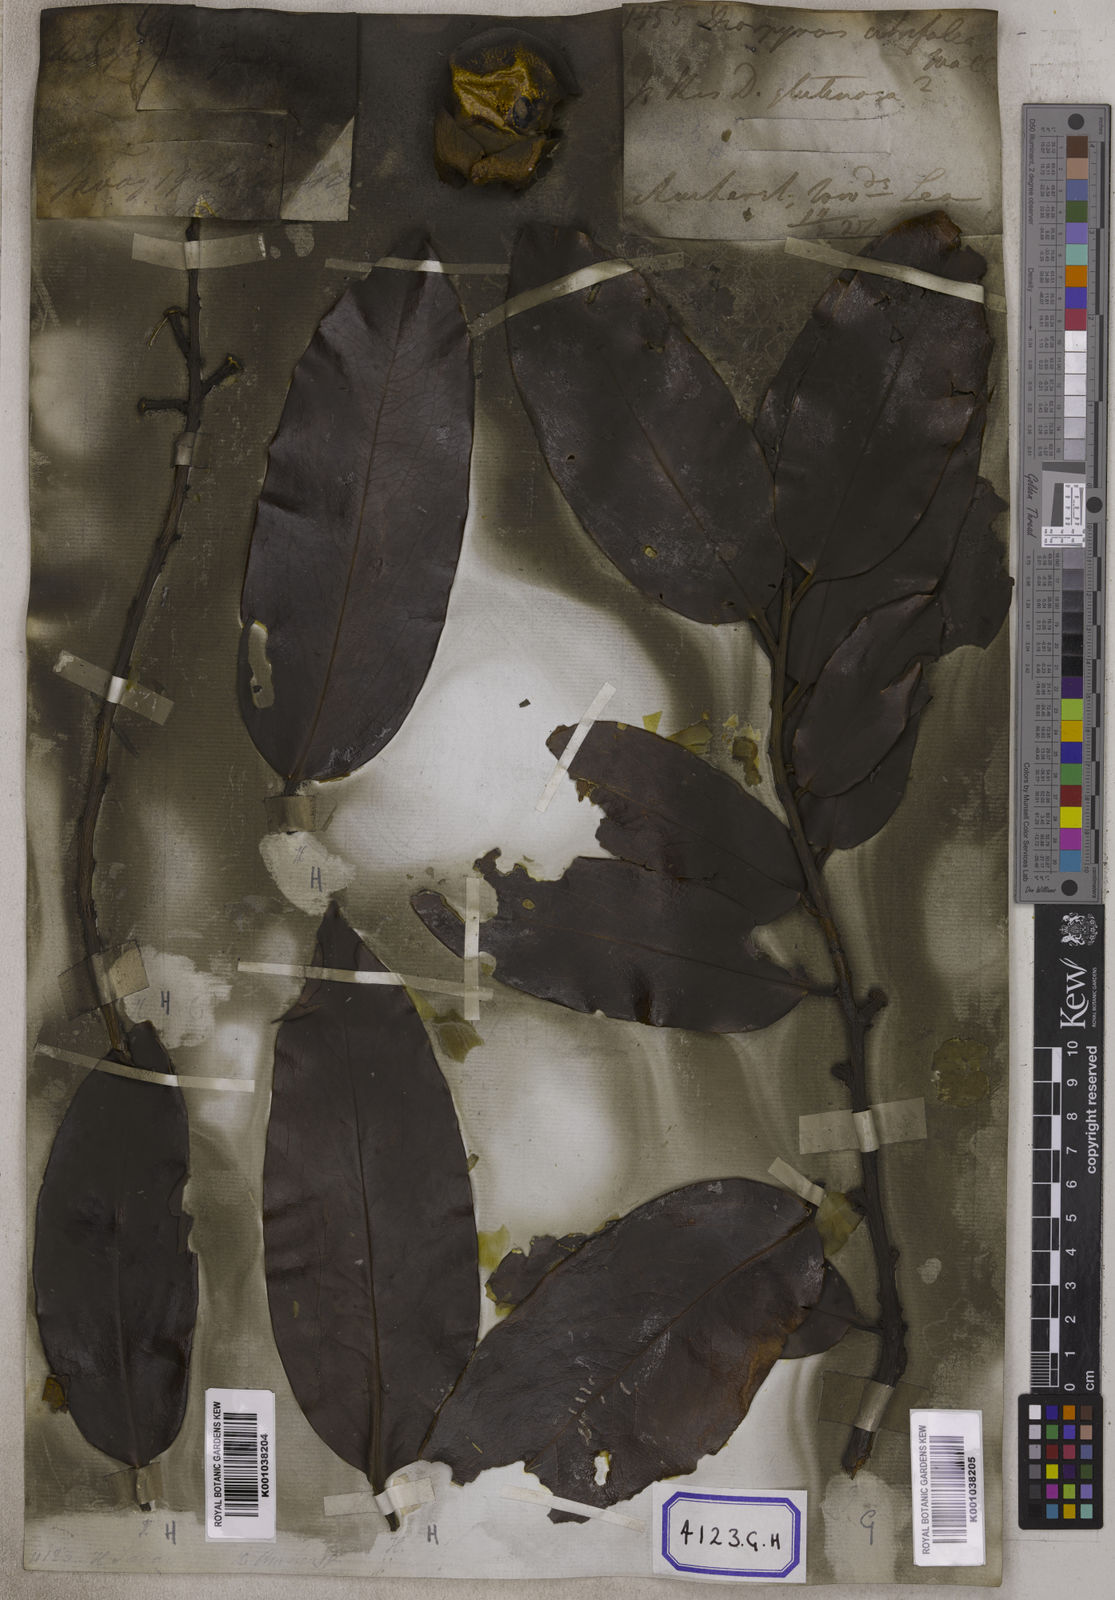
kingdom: Plantae
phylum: Tracheophyta
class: Magnoliopsida
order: Ericales
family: Ebenaceae
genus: Diospyros
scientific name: Diospyros malabarica
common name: Mountain ebony
